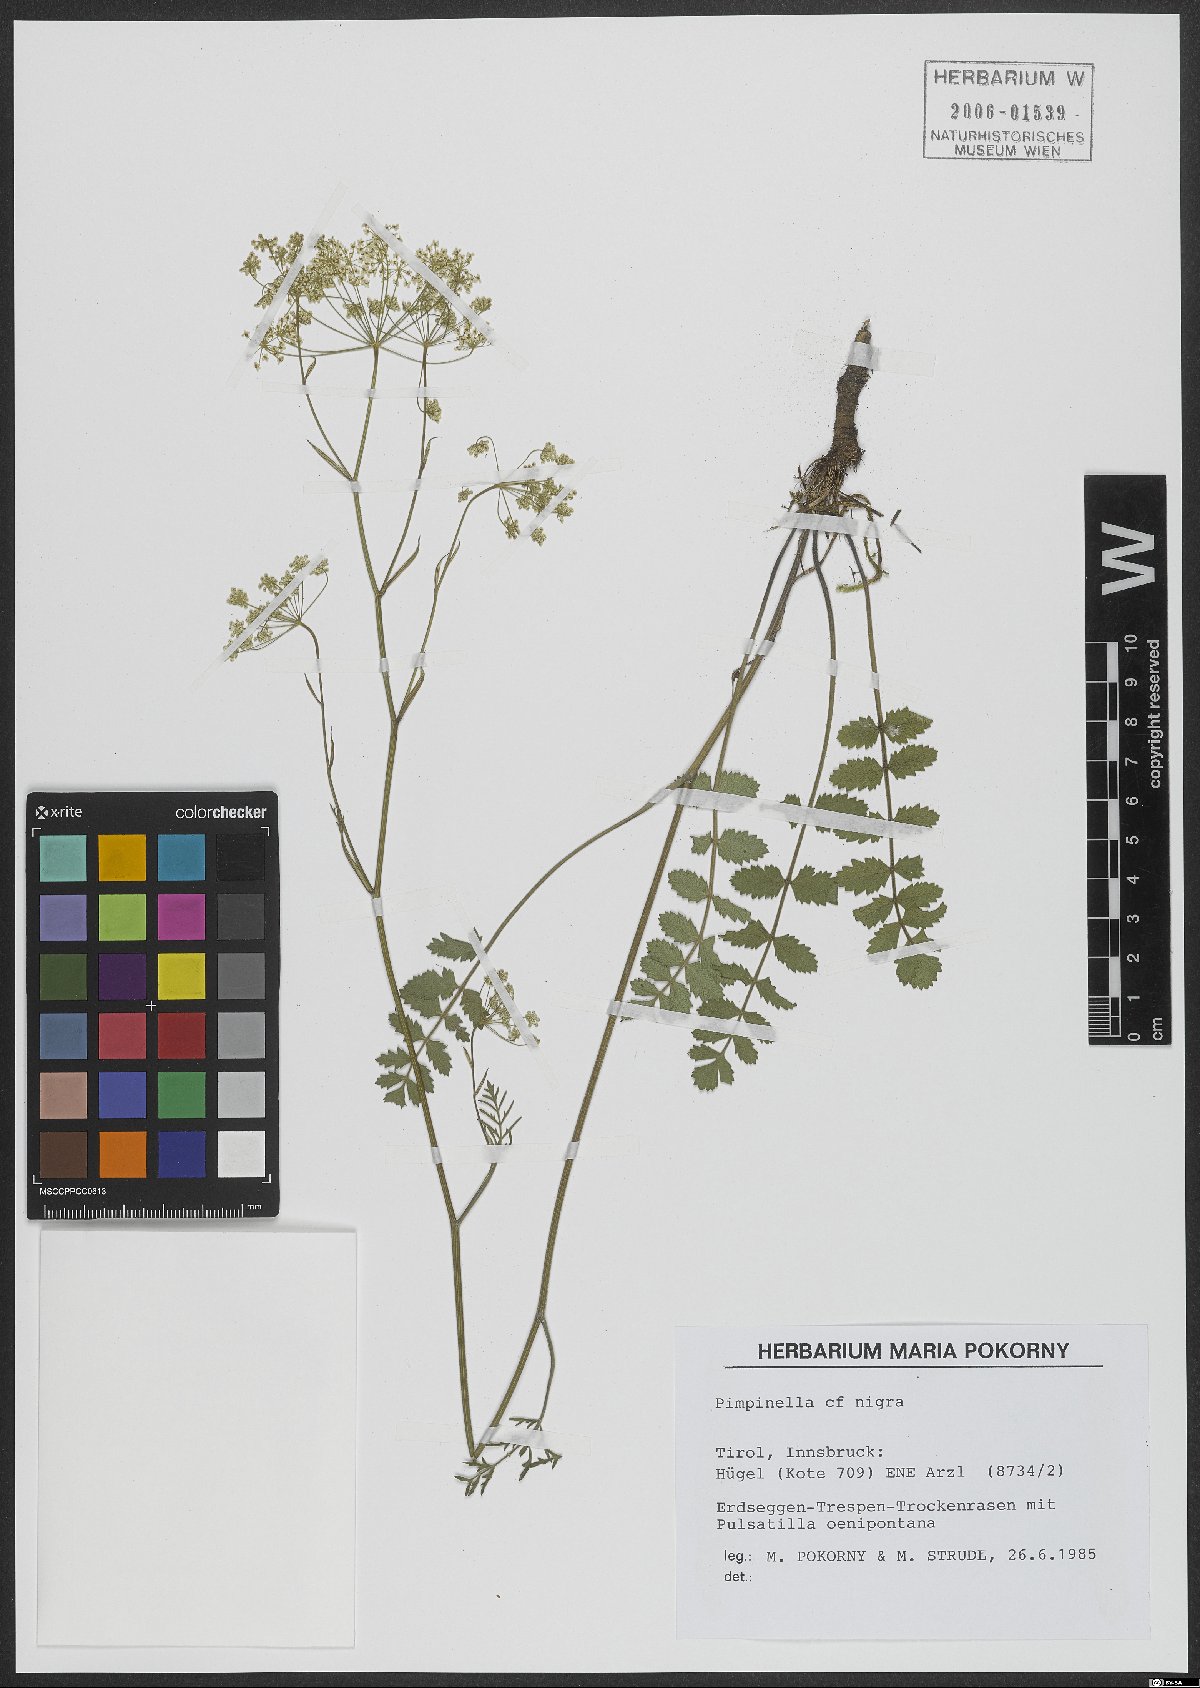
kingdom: Plantae
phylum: Tracheophyta
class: Magnoliopsida
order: Apiales
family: Apiaceae
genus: Pimpinella
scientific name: Pimpinella saxifraga
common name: Burnet-saxifrage
